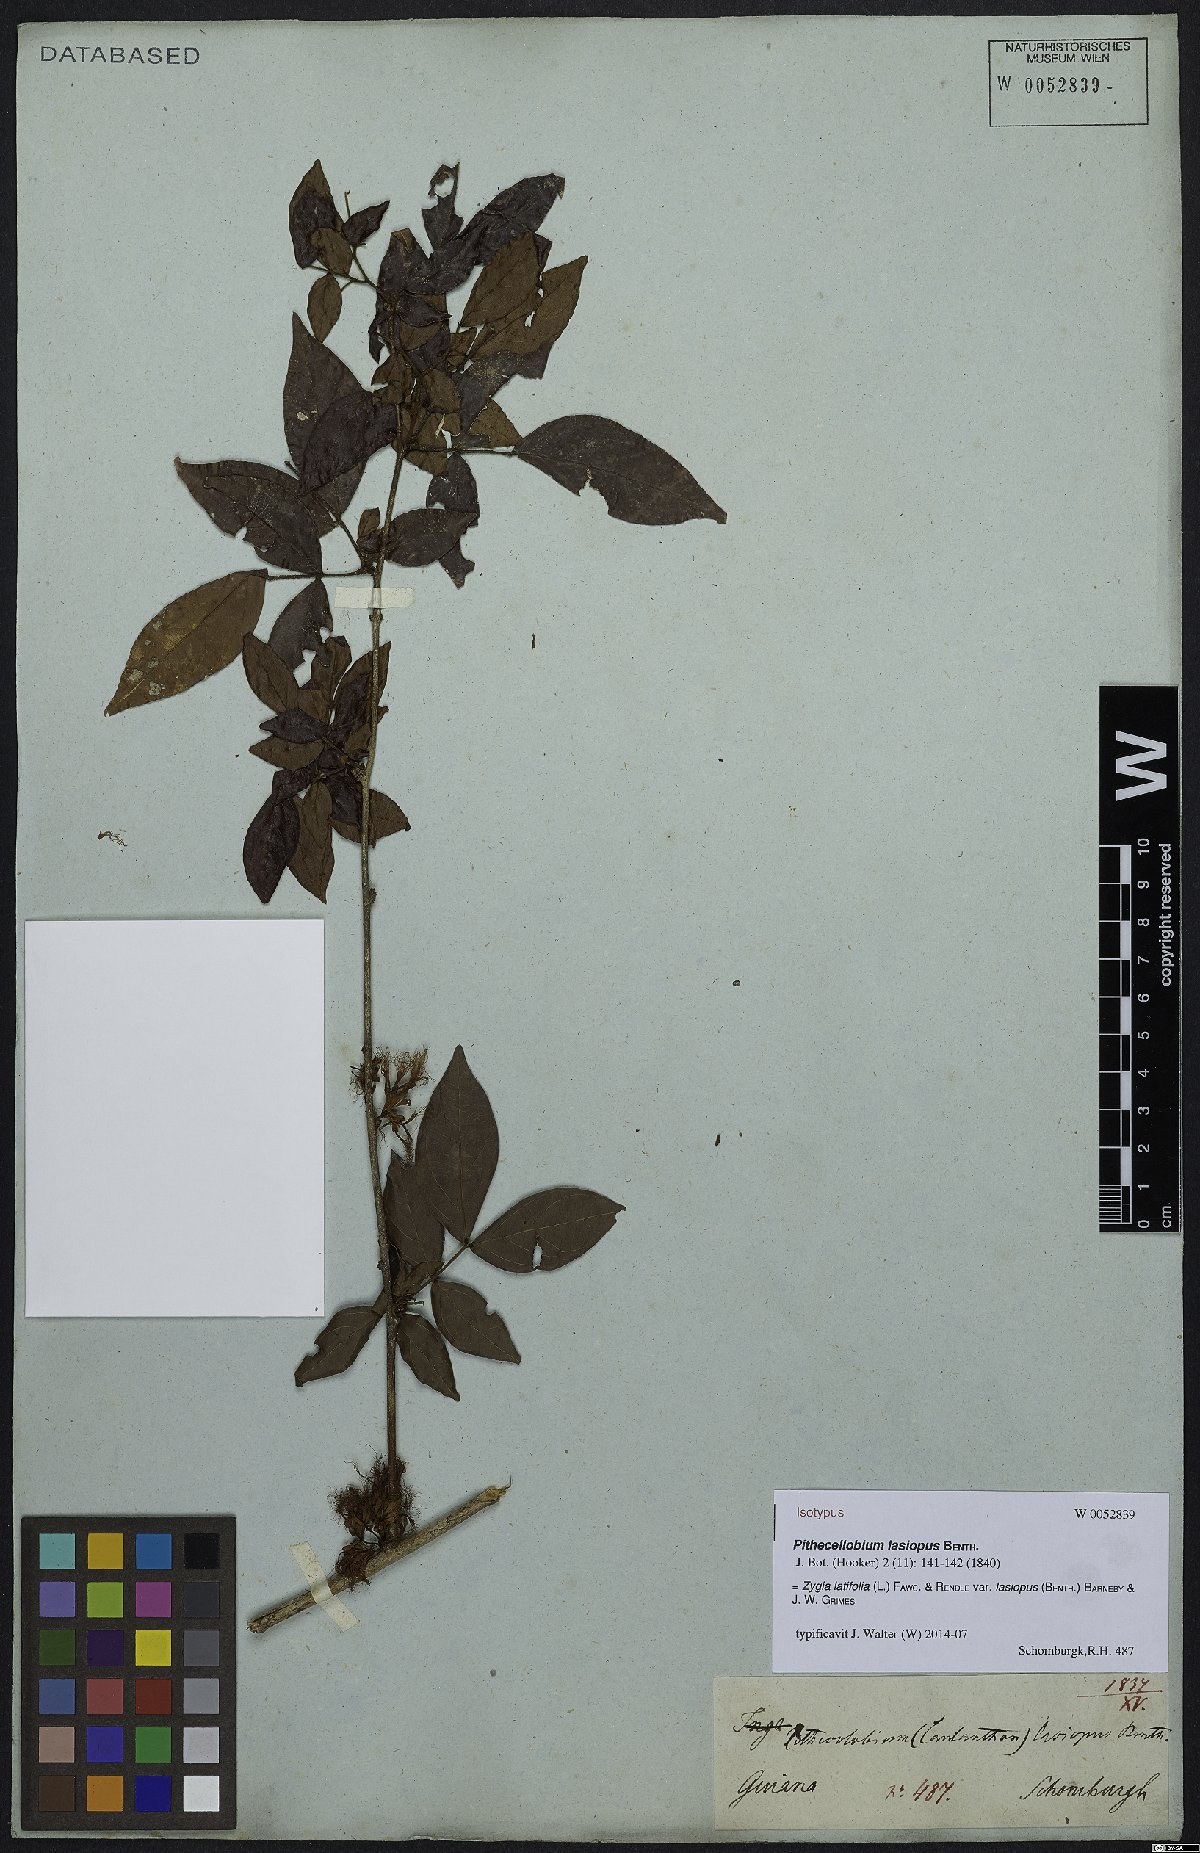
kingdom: Plantae
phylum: Tracheophyta
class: Magnoliopsida
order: Fabales
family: Fabaceae
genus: Zygia
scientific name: Zygia latifolia
